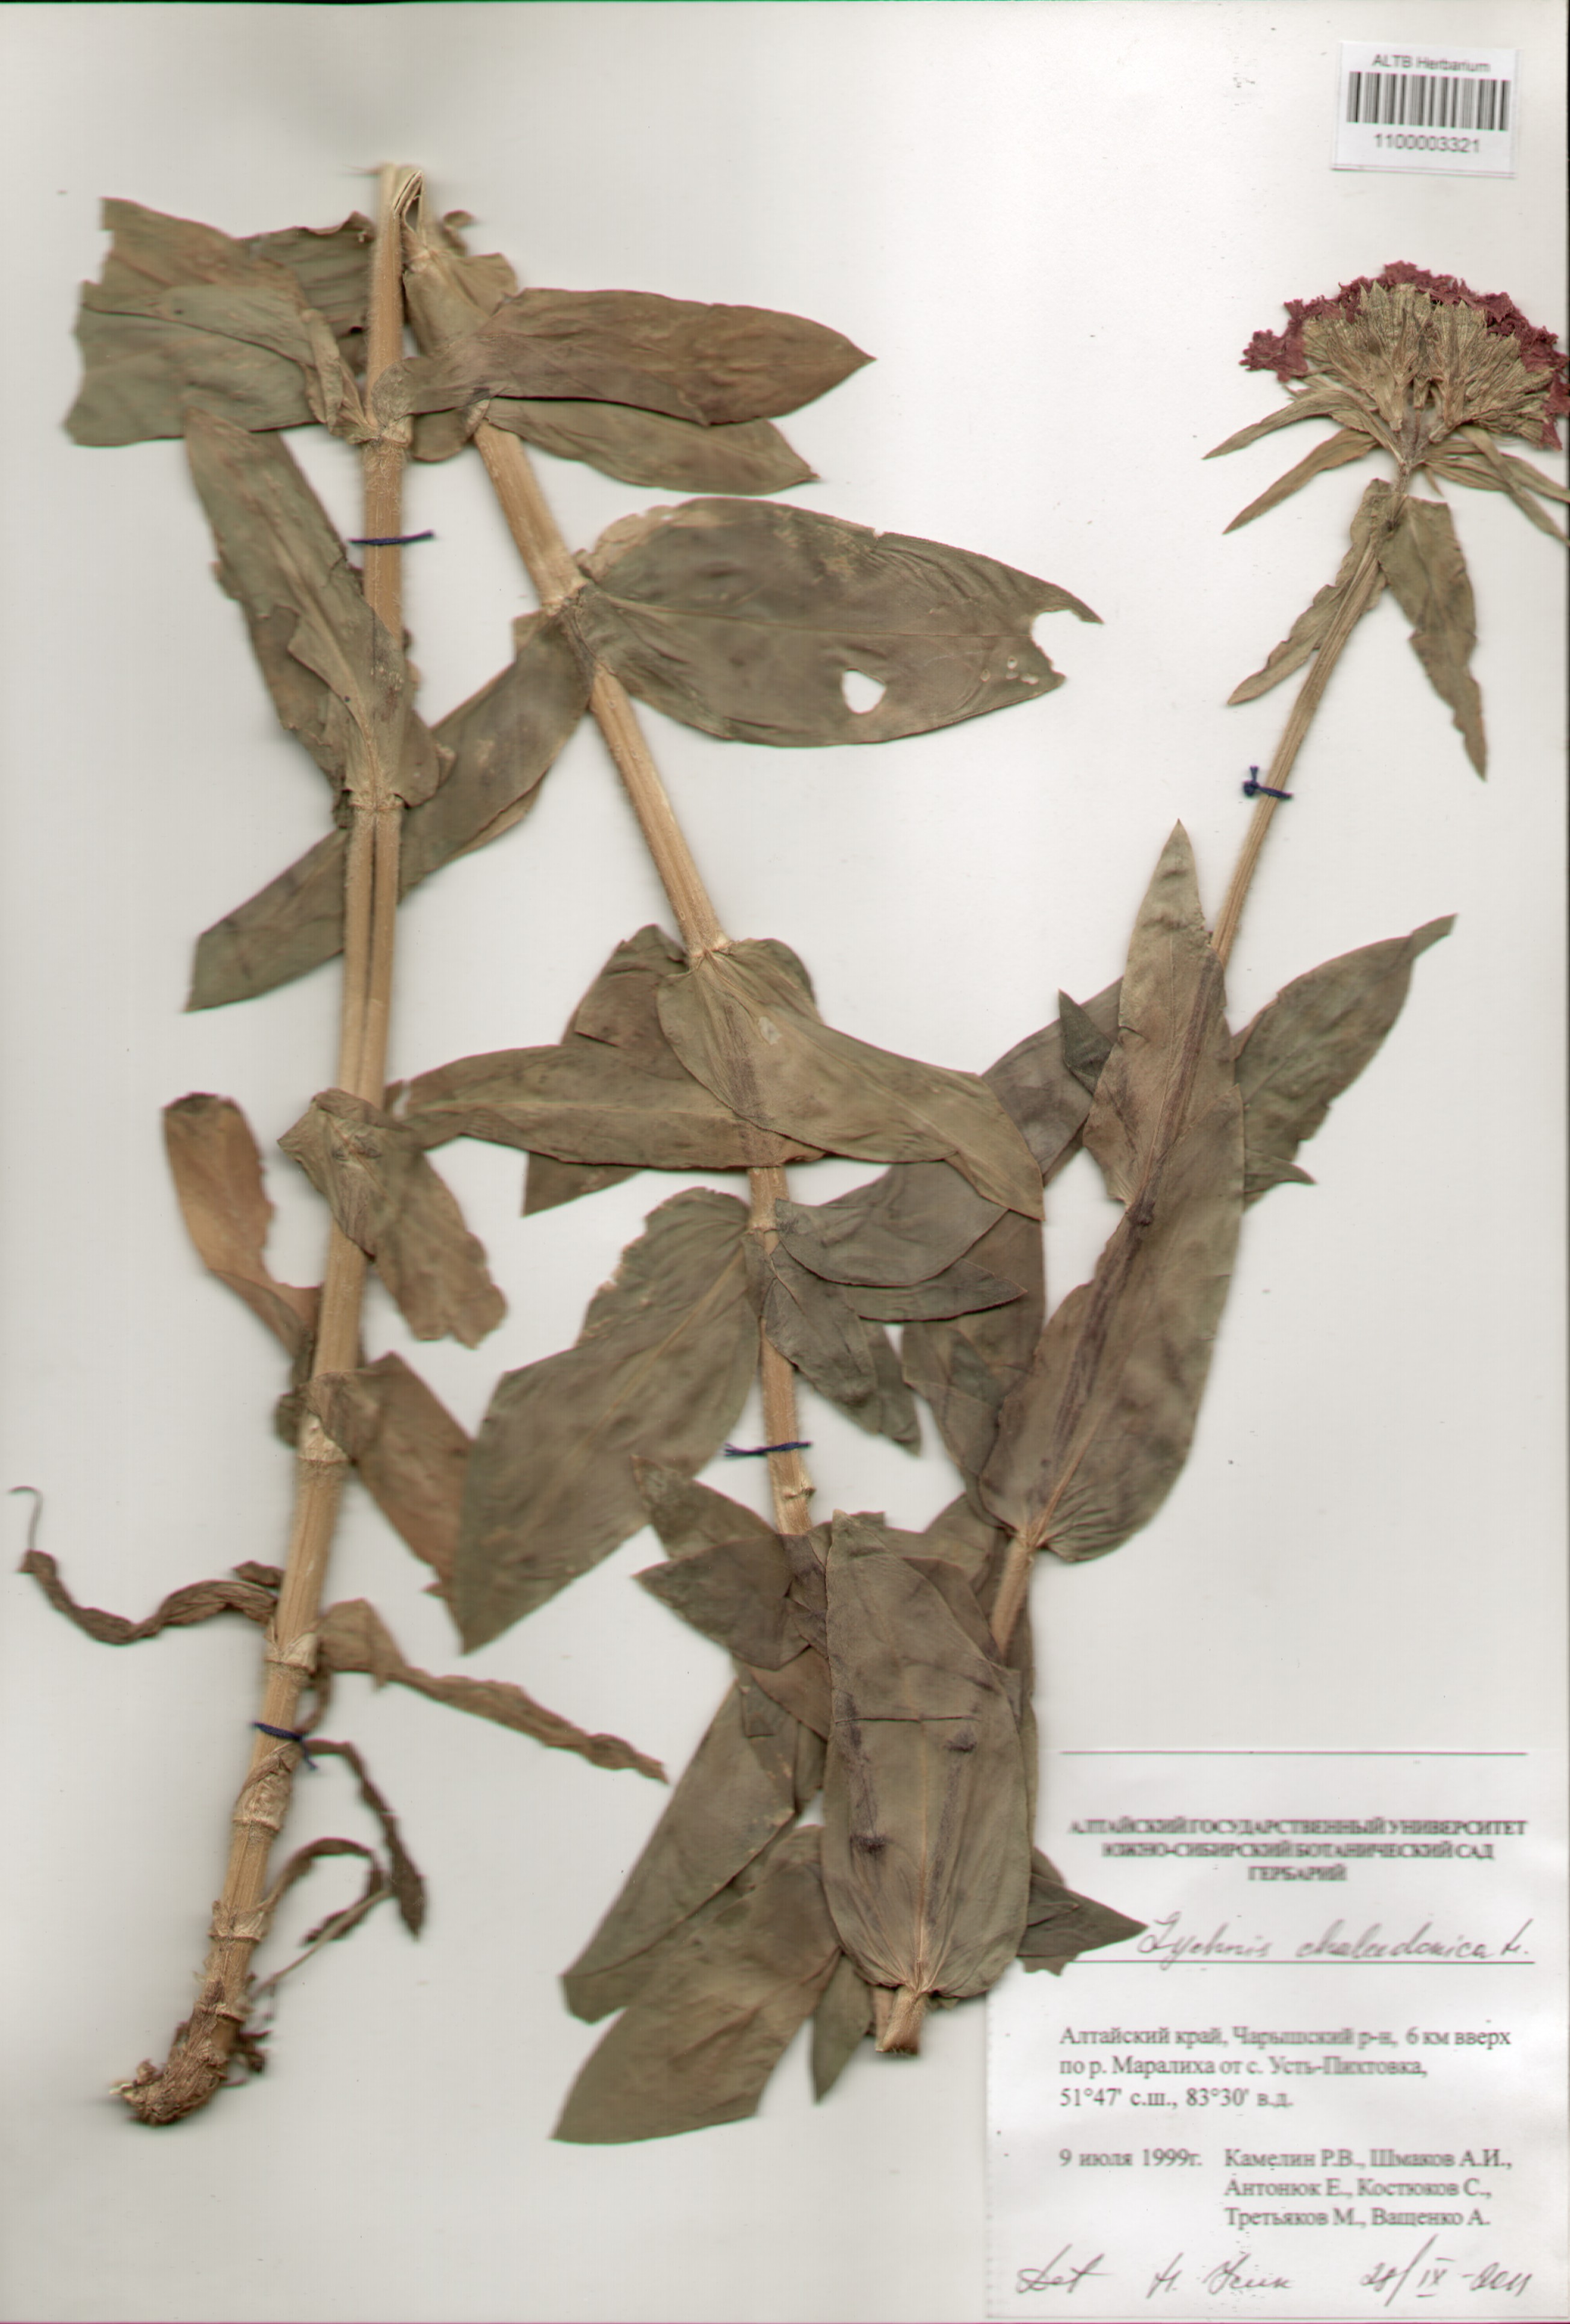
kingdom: Plantae
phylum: Tracheophyta
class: Magnoliopsida
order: Caryophyllales
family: Caryophyllaceae
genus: Silene
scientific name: Silene chalcedonica
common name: Maltese-cross
